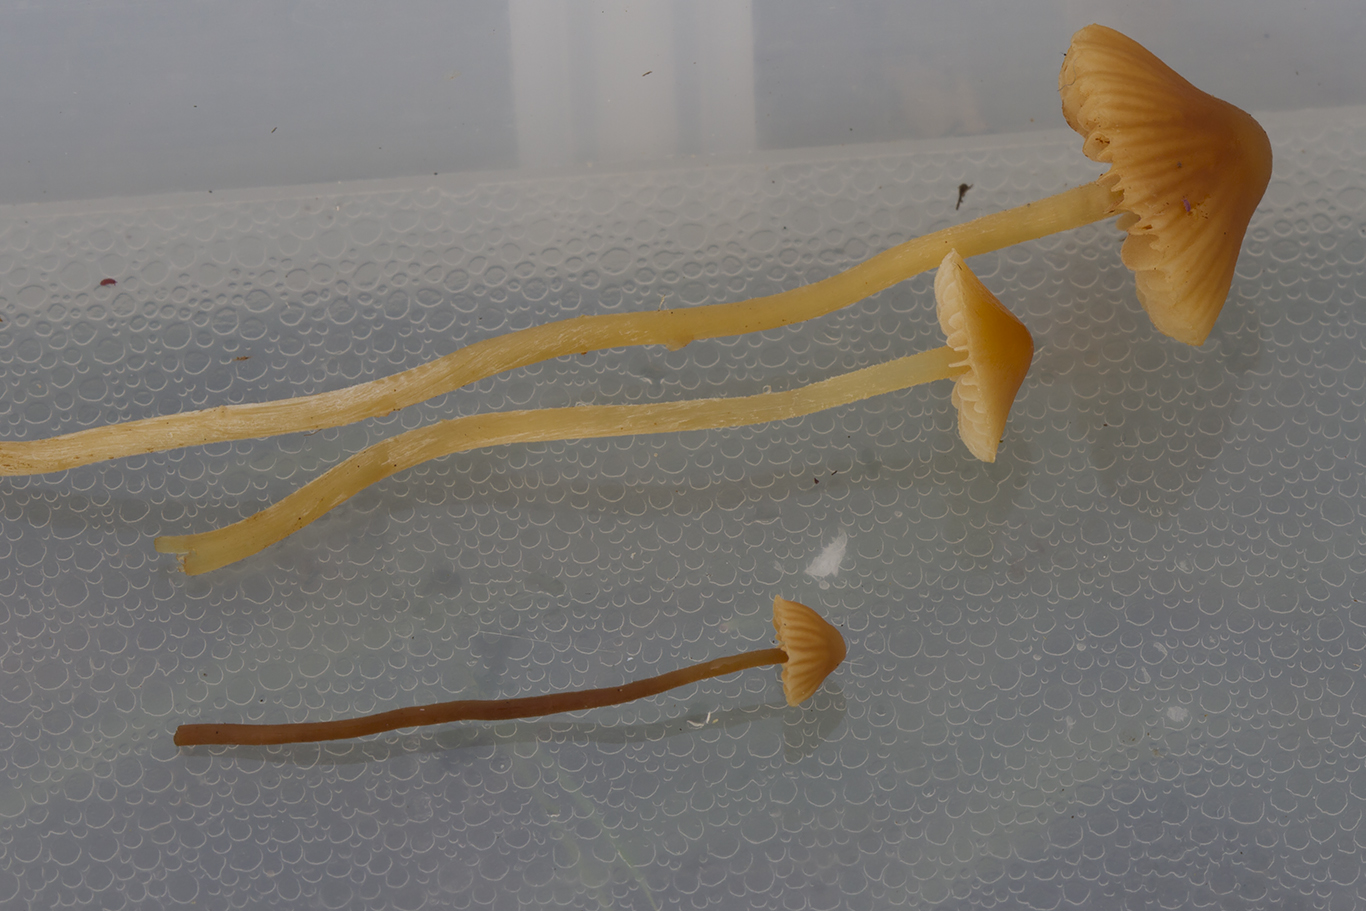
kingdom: Fungi
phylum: Basidiomycota
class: Agaricomycetes
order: Agaricales
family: Hymenogastraceae
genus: Galerina
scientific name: Galerina atkinsoniana
